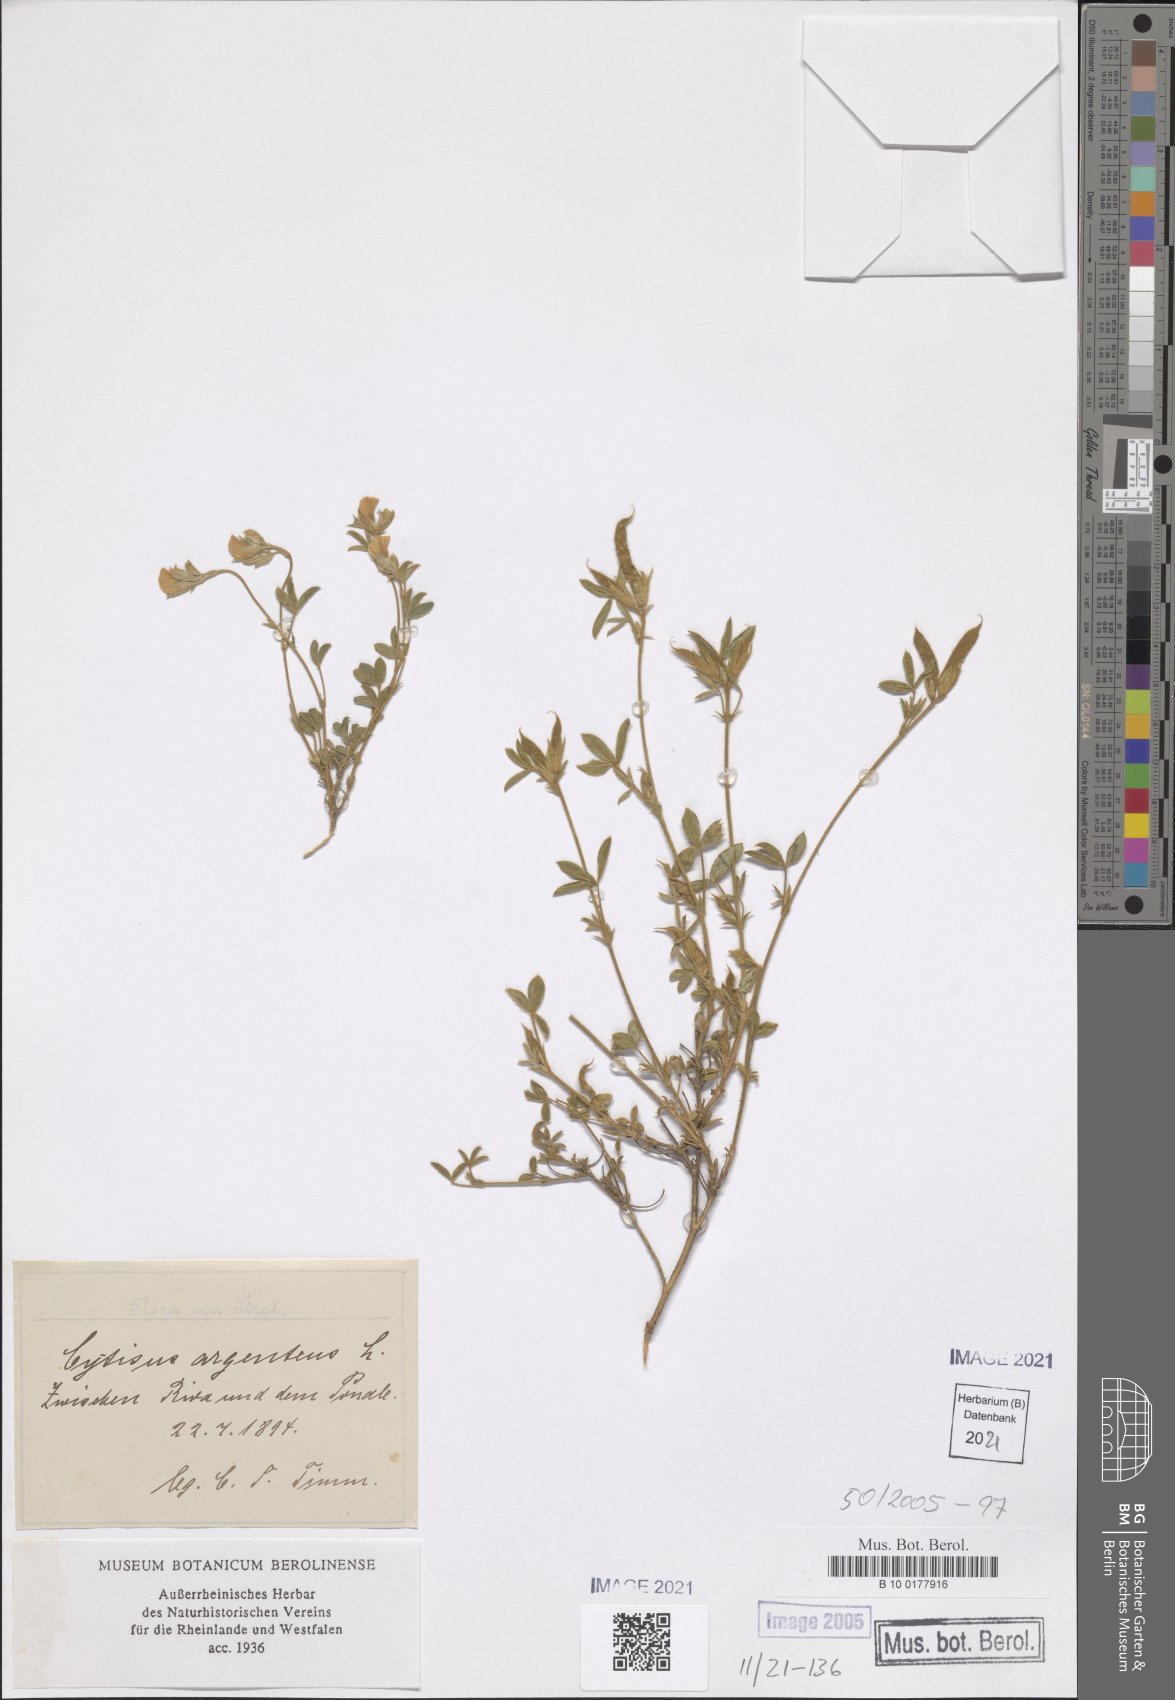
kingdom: Plantae
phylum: Tracheophyta
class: Magnoliopsida
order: Fabales
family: Fabaceae
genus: Argyrolobium
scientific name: Argyrolobium zanonii
